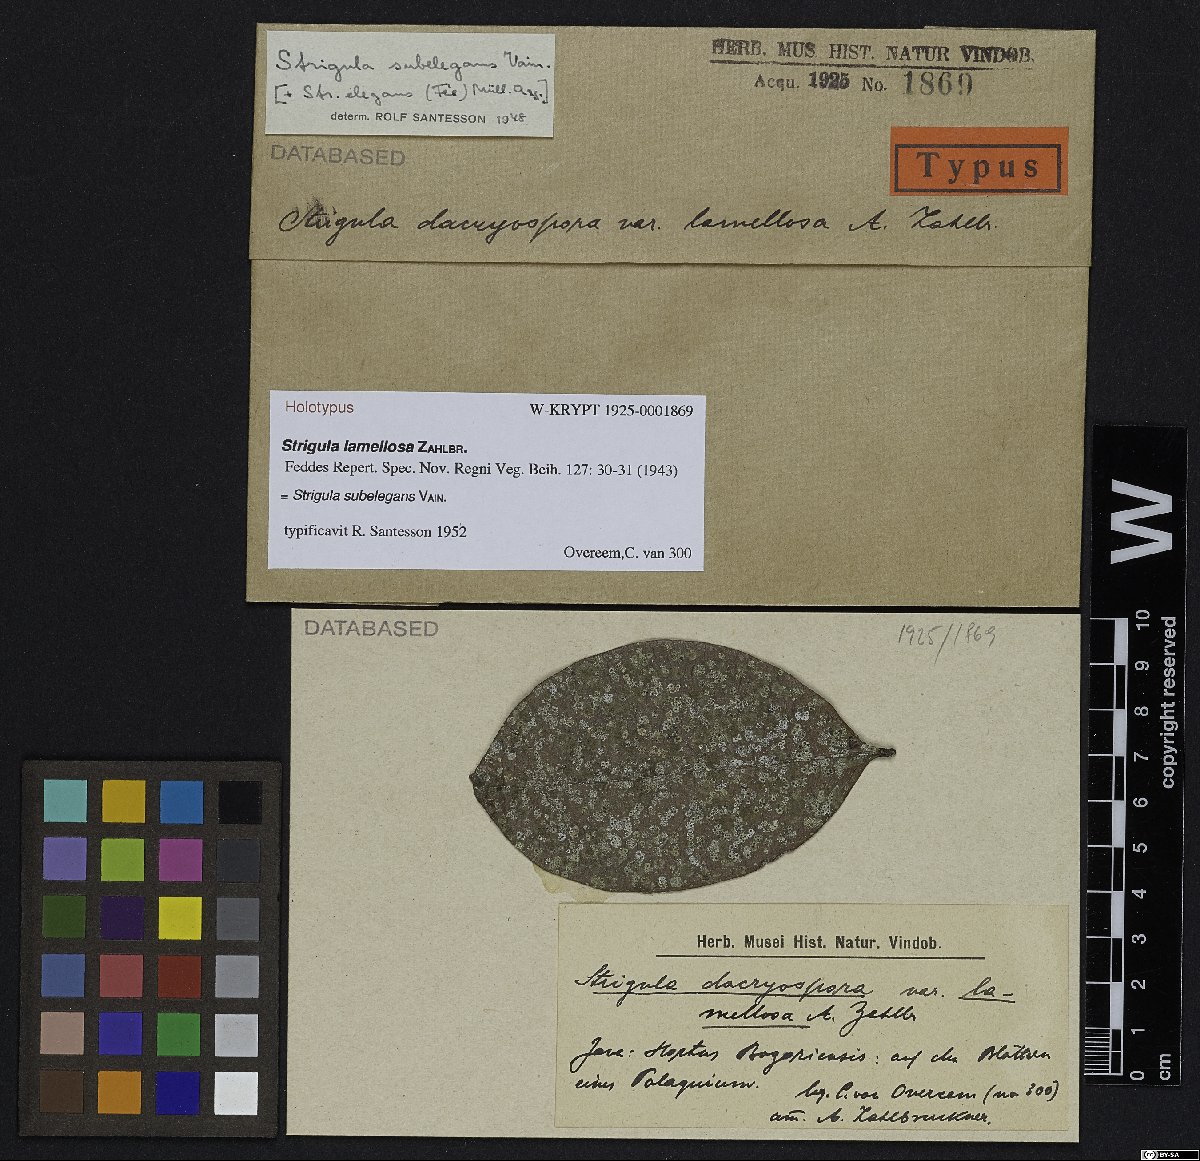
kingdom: Fungi
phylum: Ascomycota
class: Dothideomycetes
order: Strigulales
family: Strigulaceae
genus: Strigula
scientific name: Strigula
